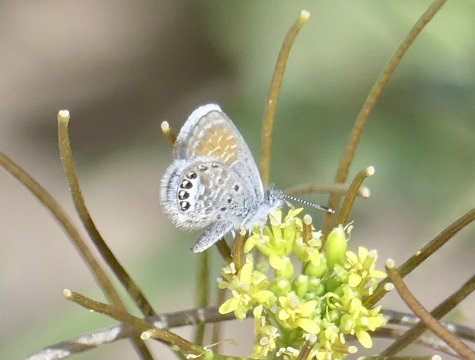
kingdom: Animalia
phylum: Arthropoda
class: Insecta
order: Lepidoptera
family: Lycaenidae
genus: Brephidium
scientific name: Brephidium exilis
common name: Western Pygmy-Blue
